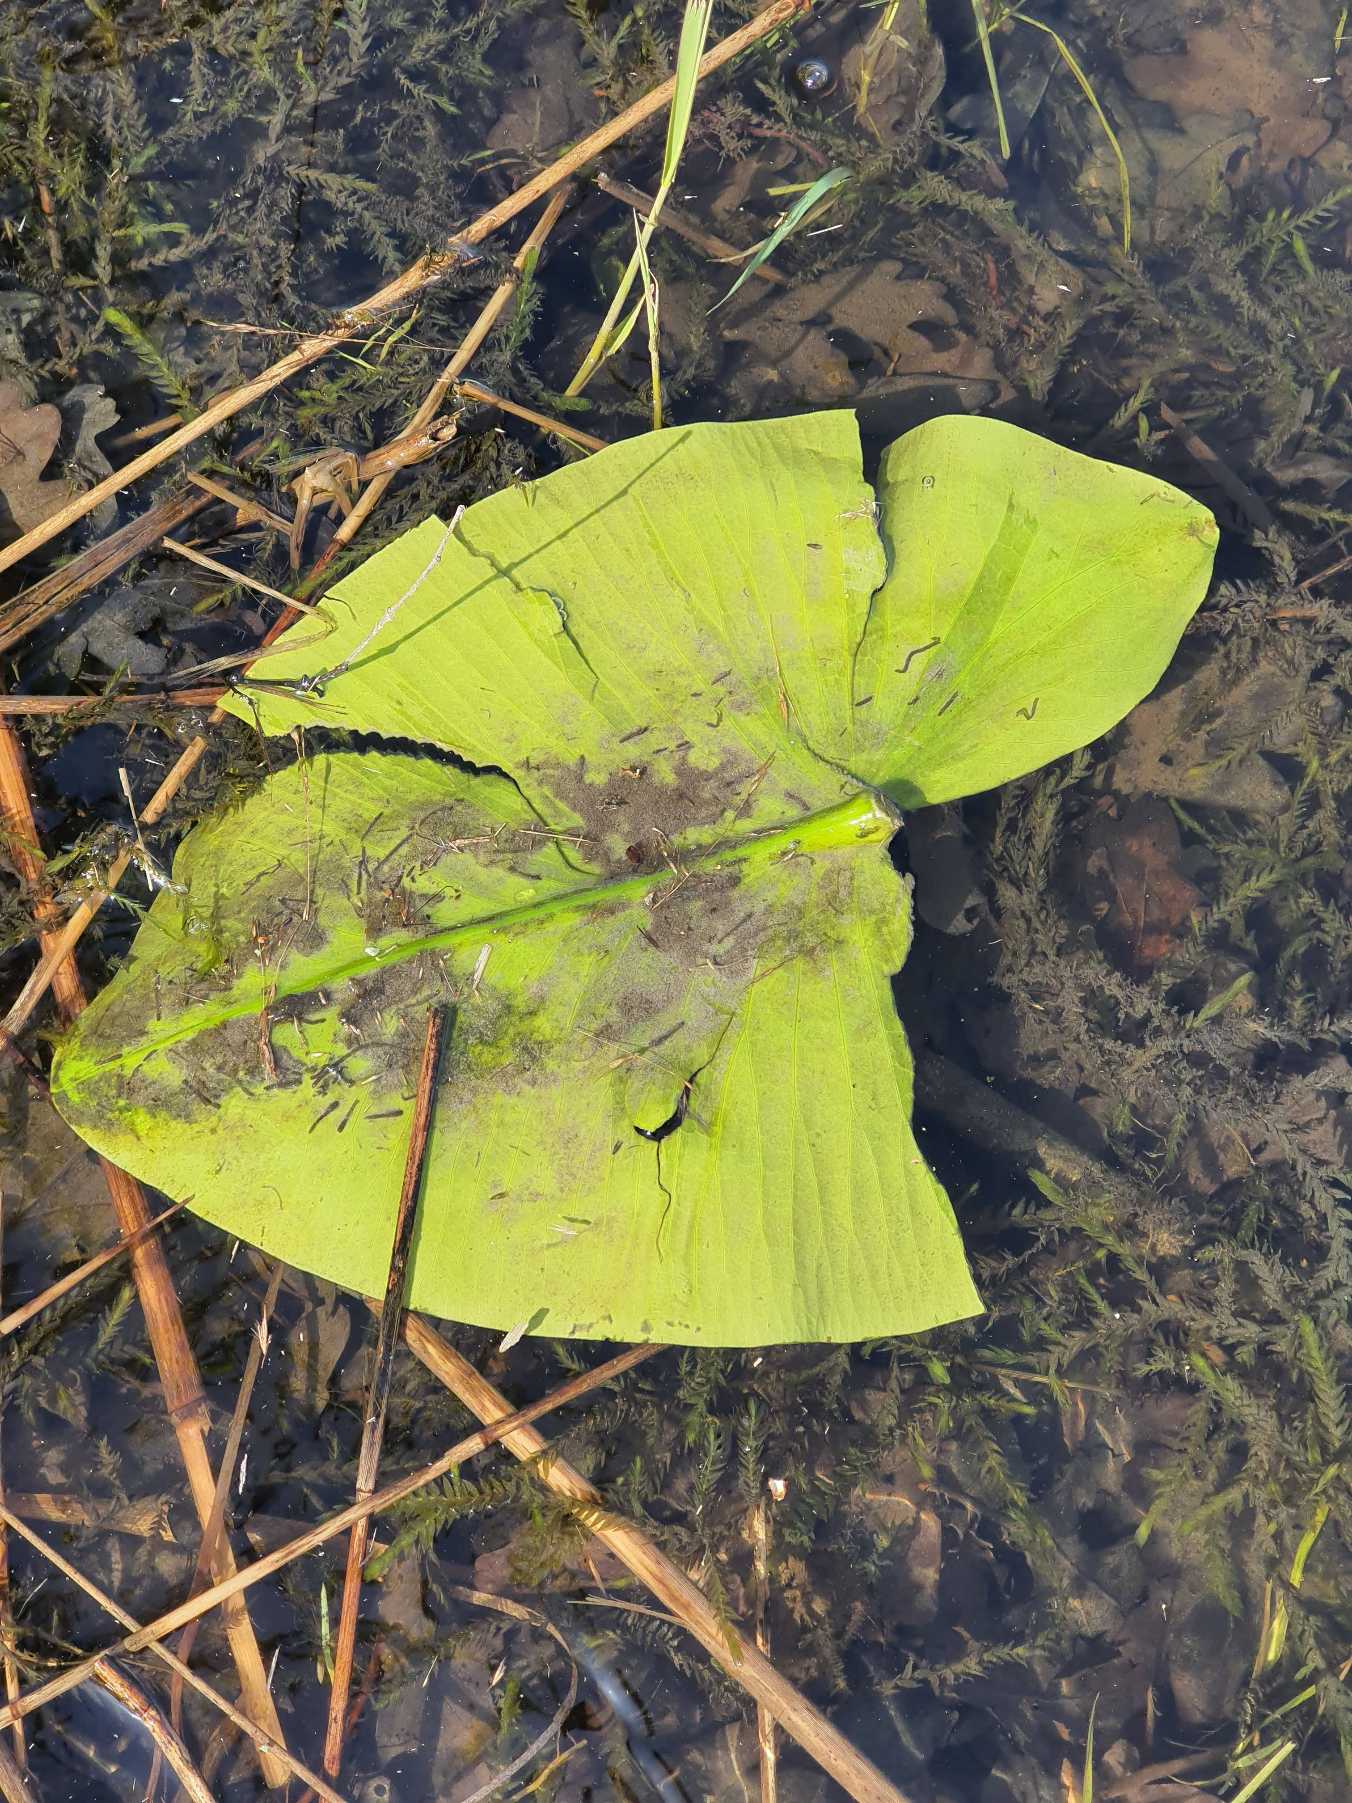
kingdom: Plantae
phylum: Tracheophyta
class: Magnoliopsida
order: Nymphaeales
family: Nymphaeaceae
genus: Nuphar
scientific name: Nuphar lutea
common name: Gul åkande
